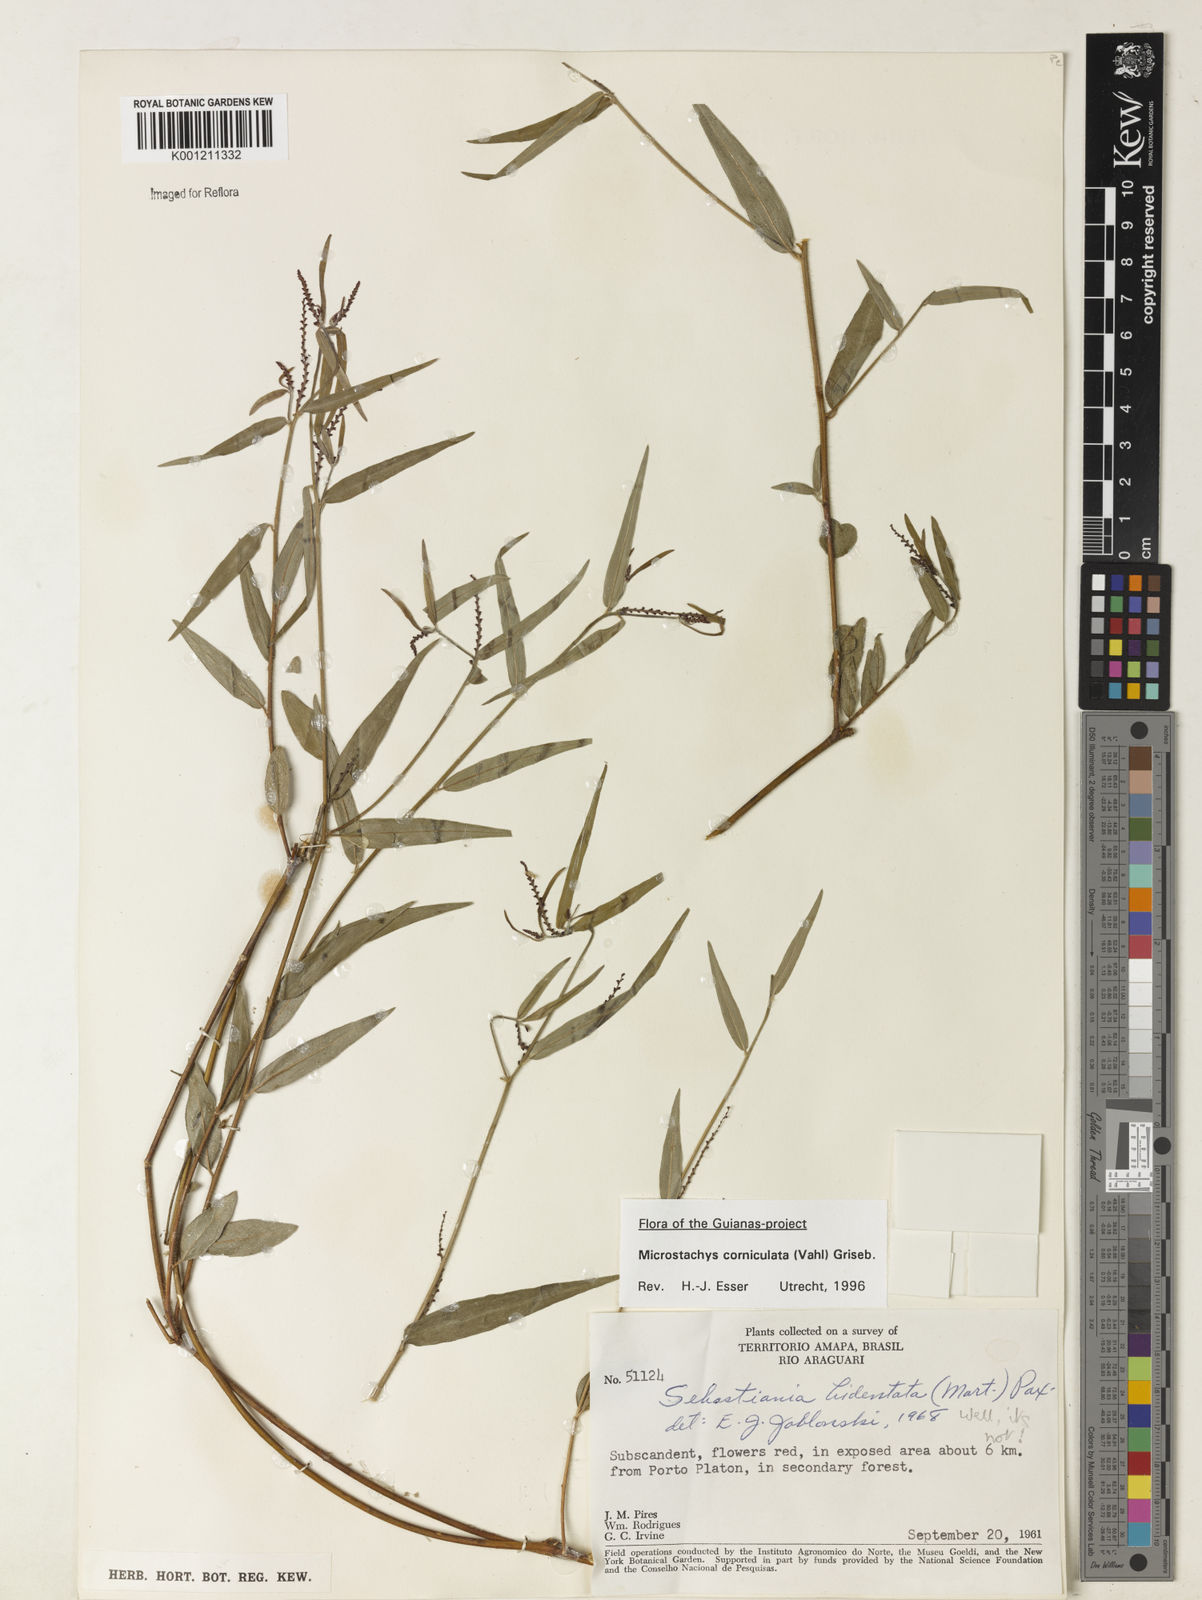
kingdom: Plantae
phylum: Tracheophyta
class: Magnoliopsida
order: Malpighiales
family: Euphorbiaceae
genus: Microstachys
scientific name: Microstachys corniculata
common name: Hato tejas
